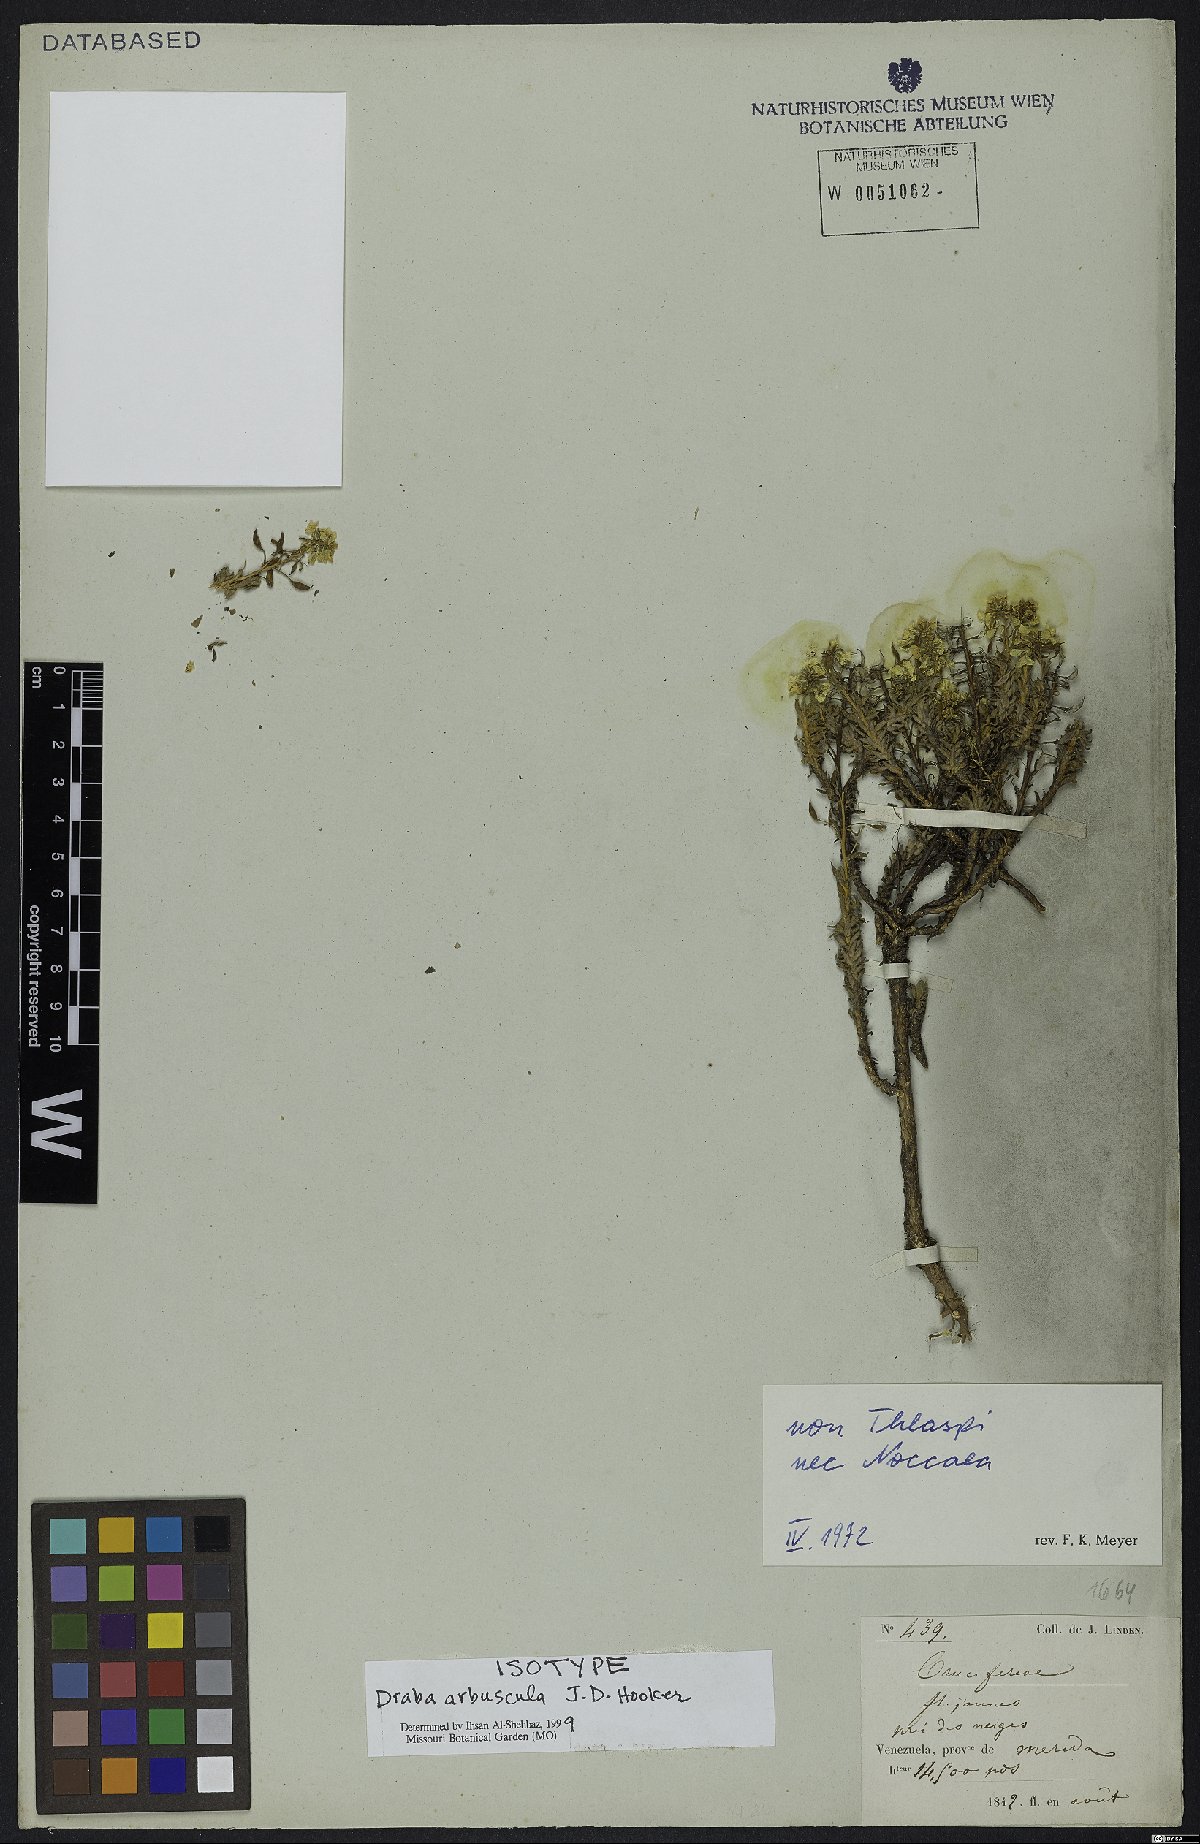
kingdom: Plantae
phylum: Tracheophyta
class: Magnoliopsida
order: Brassicales
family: Brassicaceae
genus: Draba
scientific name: Draba arbuscula
